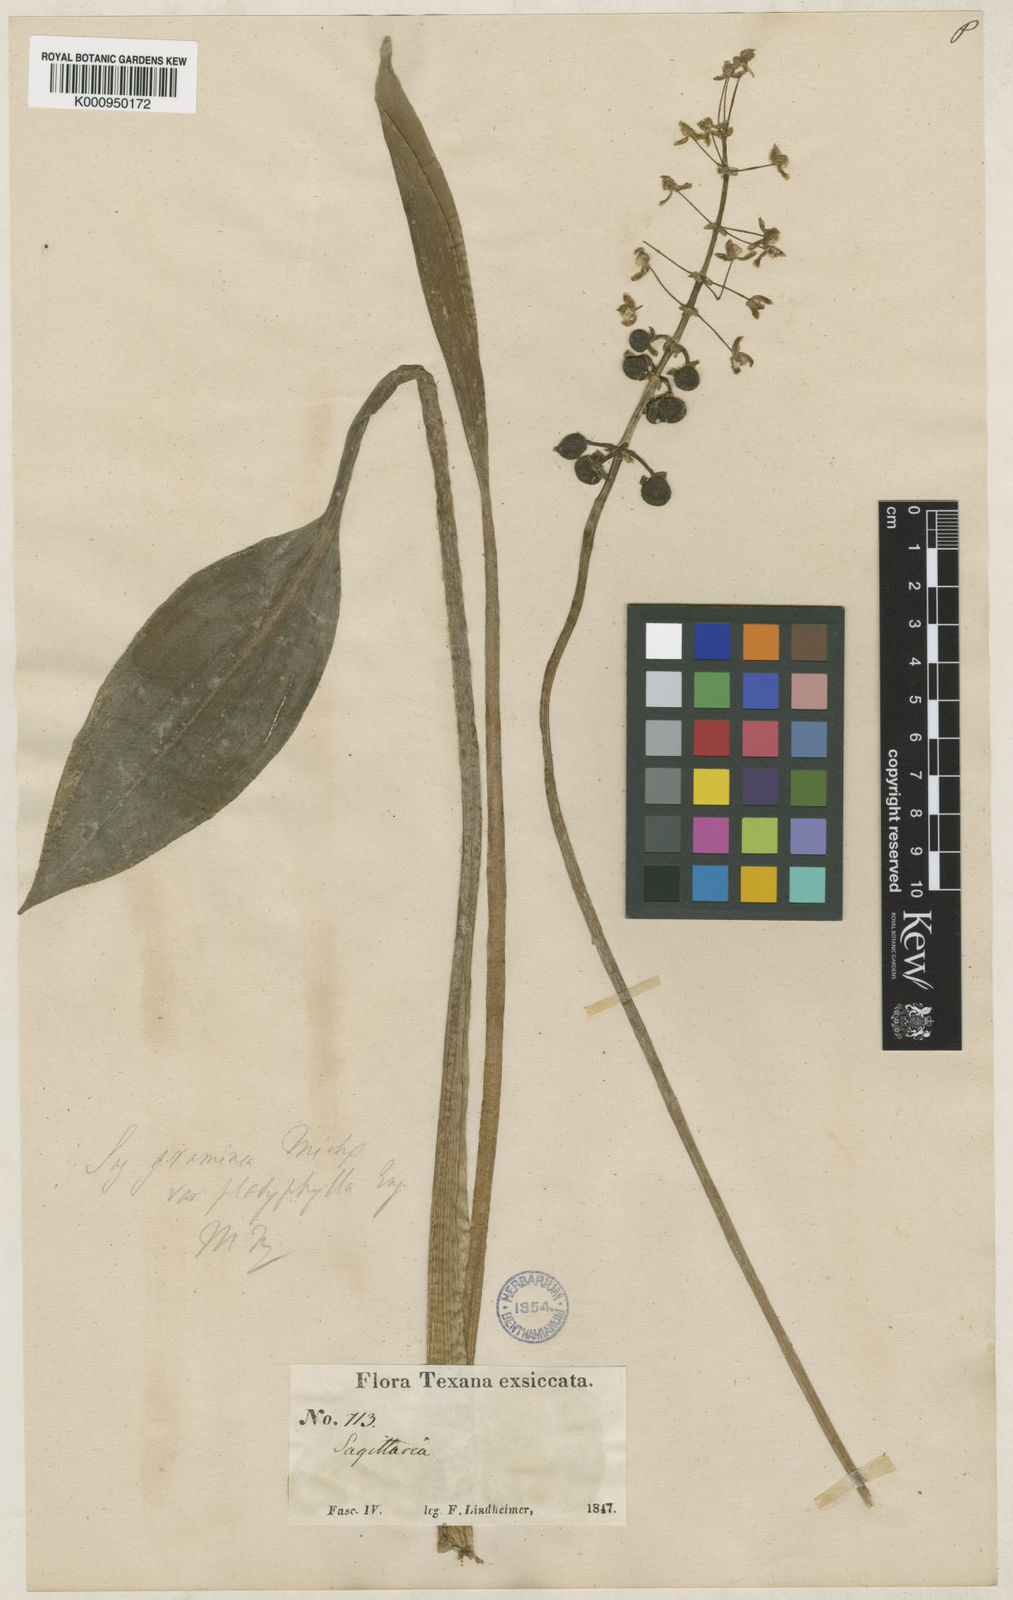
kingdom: Plantae
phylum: Tracheophyta
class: Liliopsida
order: Alismatales
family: Alismataceae
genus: Sagittaria
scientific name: Sagittaria graminea
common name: Grass-leaved arrowhead
